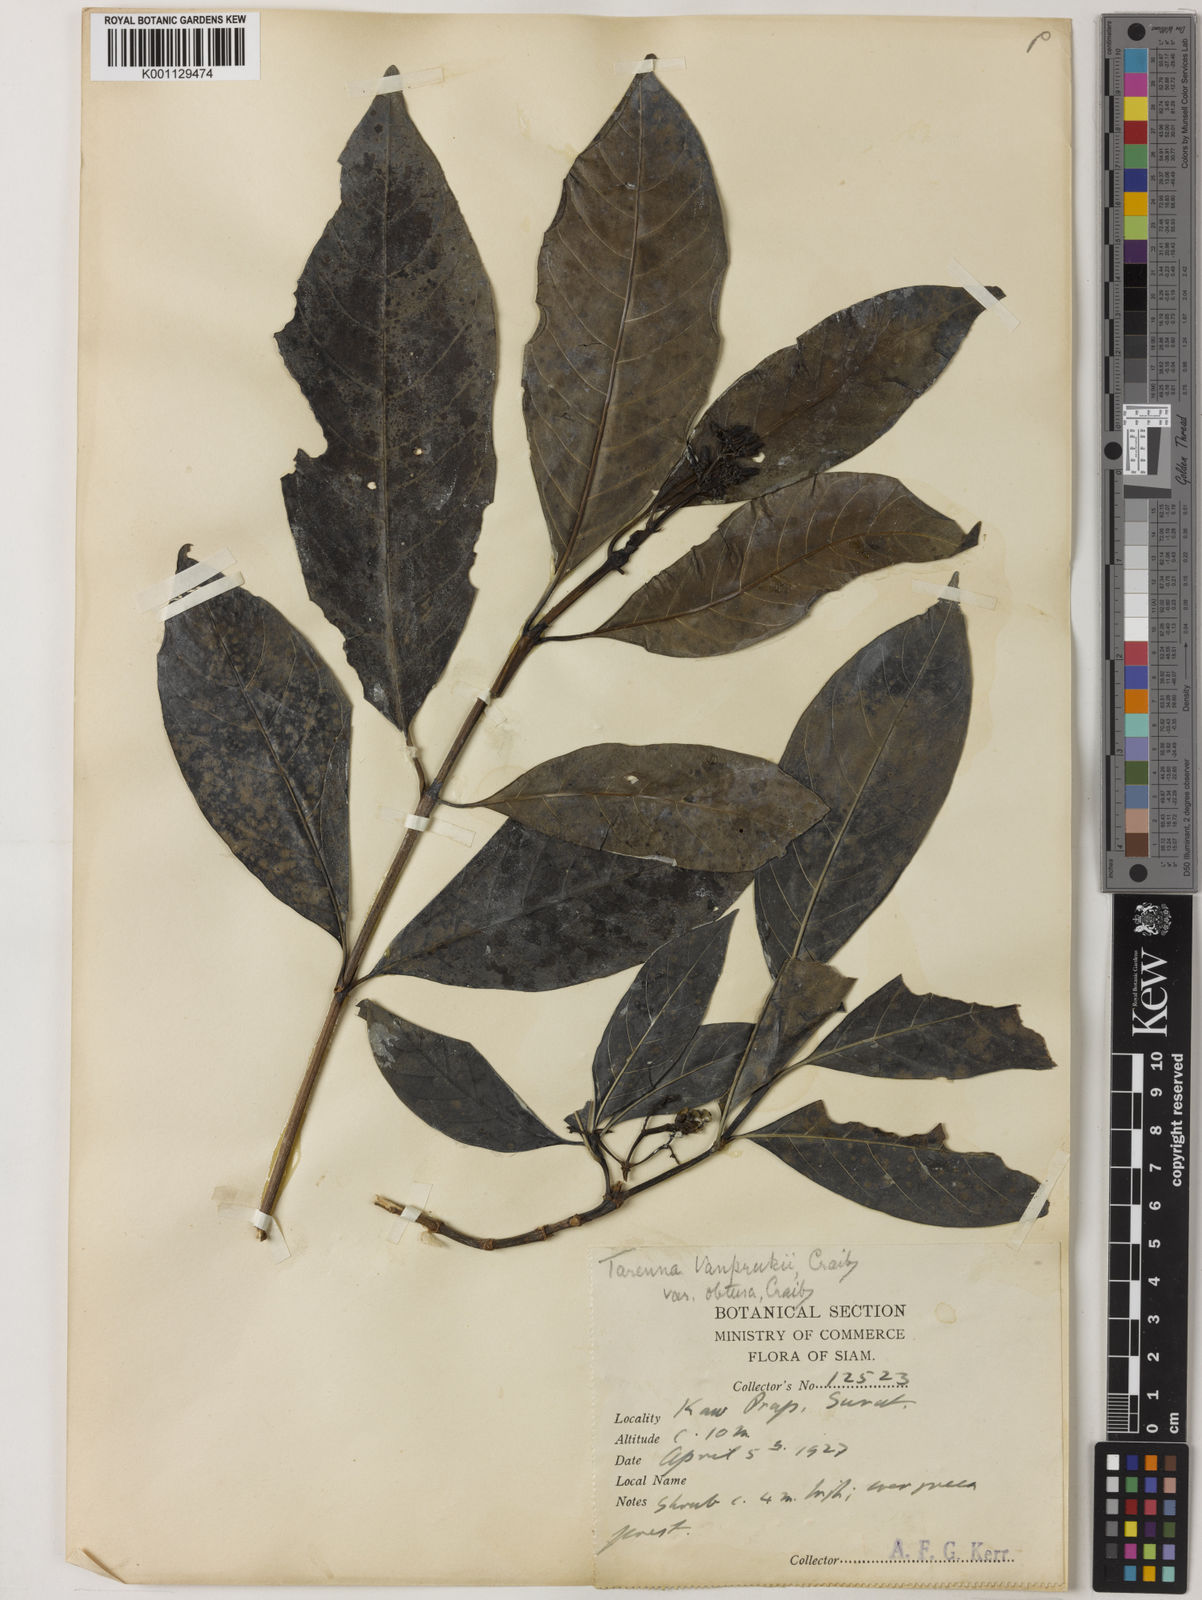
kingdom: Plantae
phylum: Tracheophyta
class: Magnoliopsida
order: Gentianales
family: Rubiaceae
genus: Tarenna
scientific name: Tarenna vanprukii
